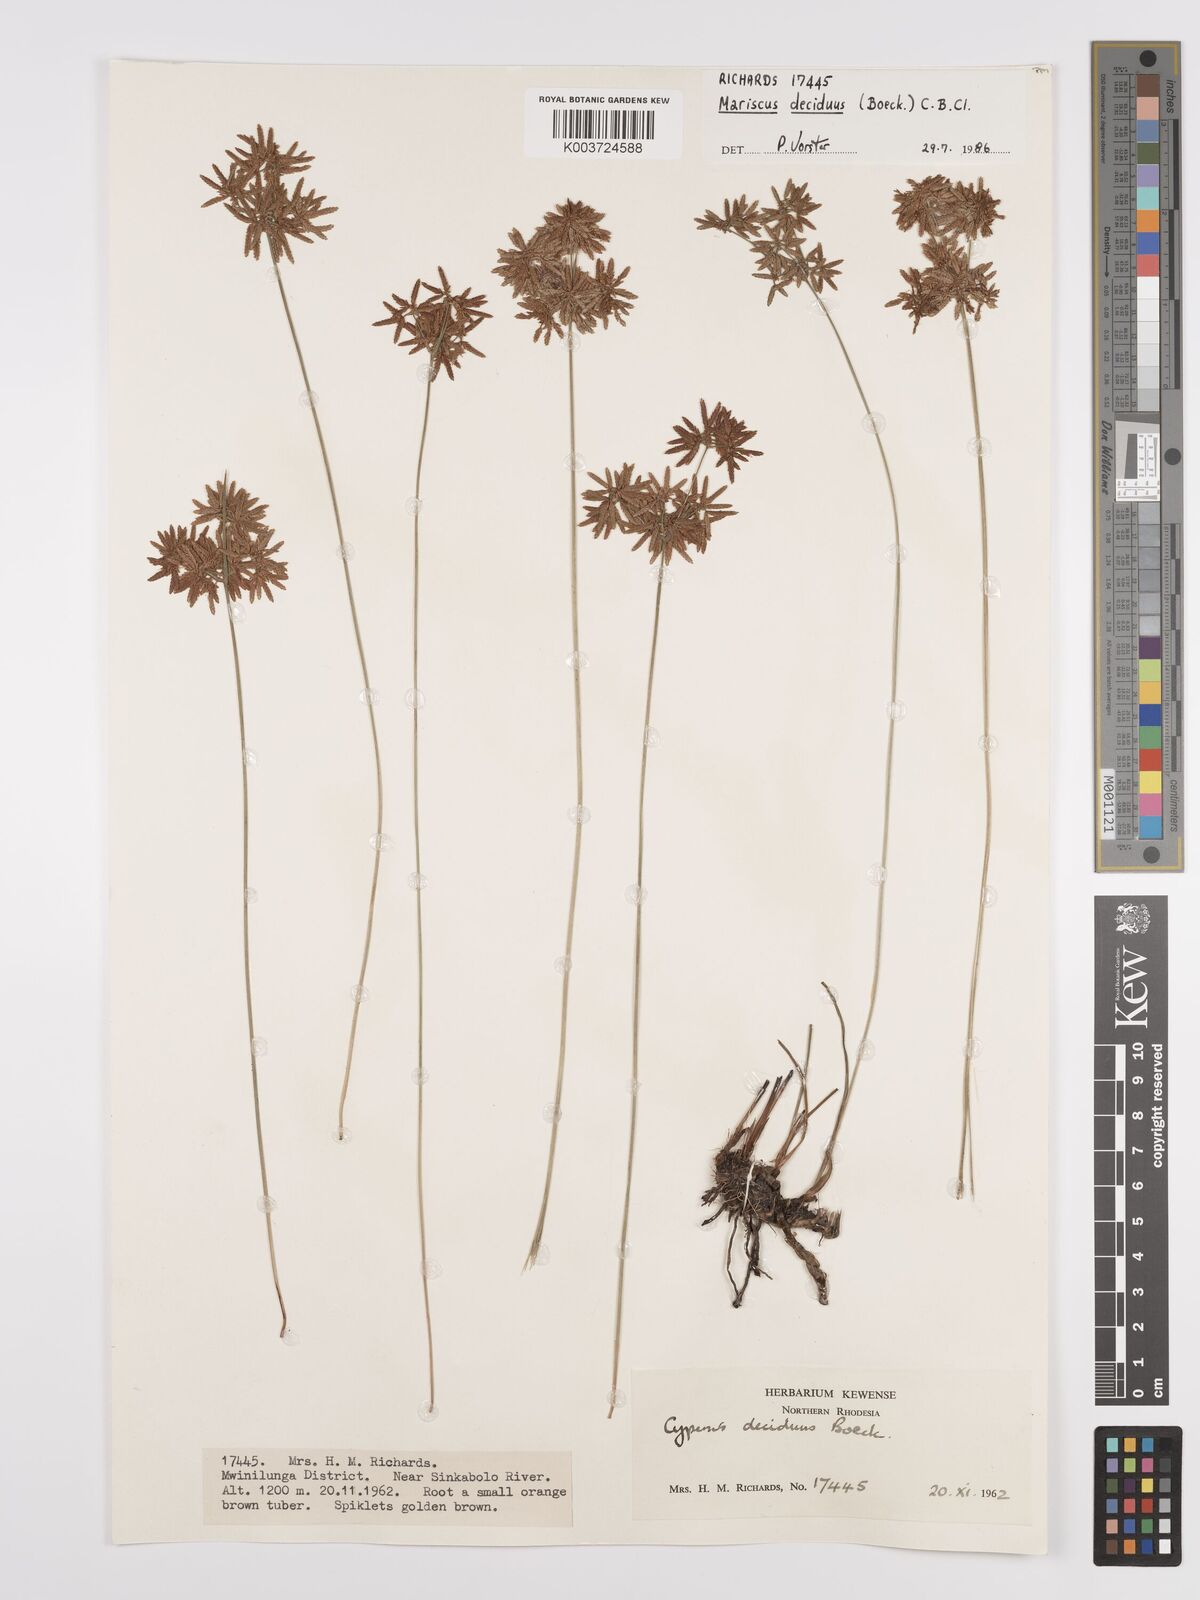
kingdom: Plantae
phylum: Tracheophyta
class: Liliopsida
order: Poales
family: Cyperaceae
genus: Cyperus
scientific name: Cyperus deciduus
